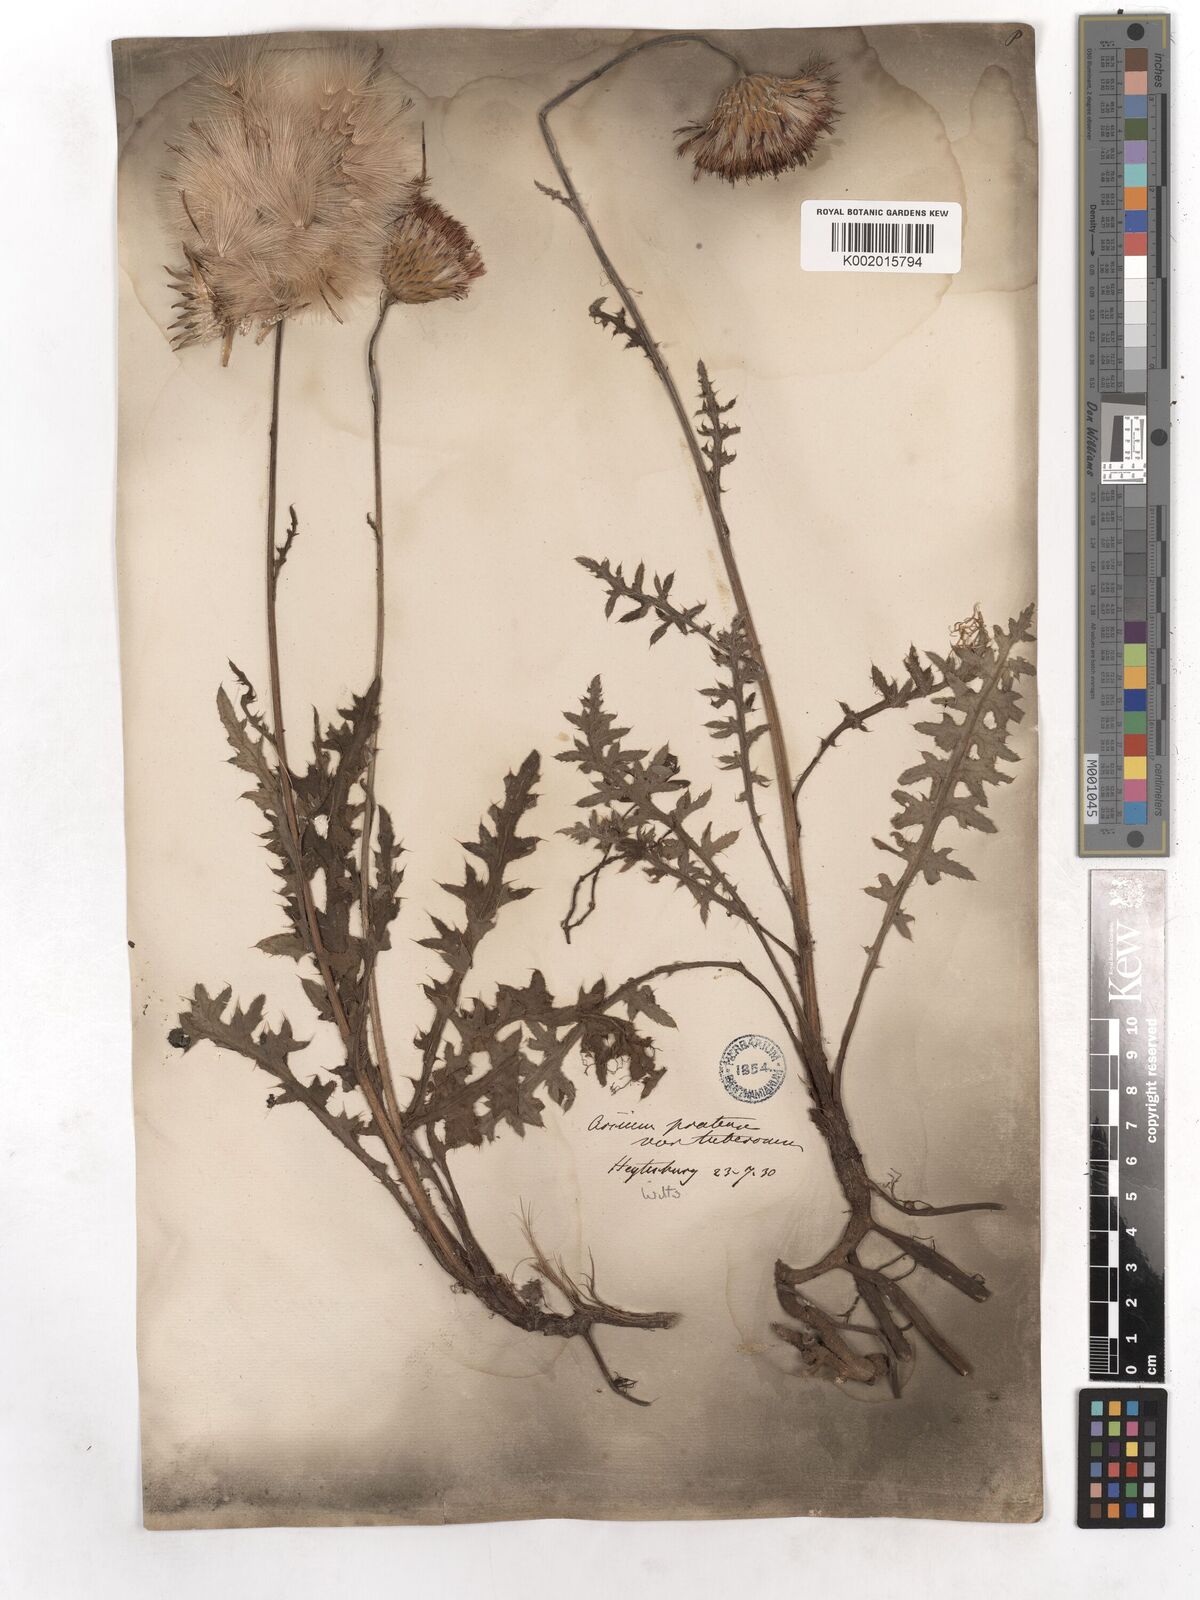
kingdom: Plantae
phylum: Tracheophyta
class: Magnoliopsida
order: Asterales
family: Asteraceae
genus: Cirsium
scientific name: Cirsium tuberosum
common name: Tuberous thistle
